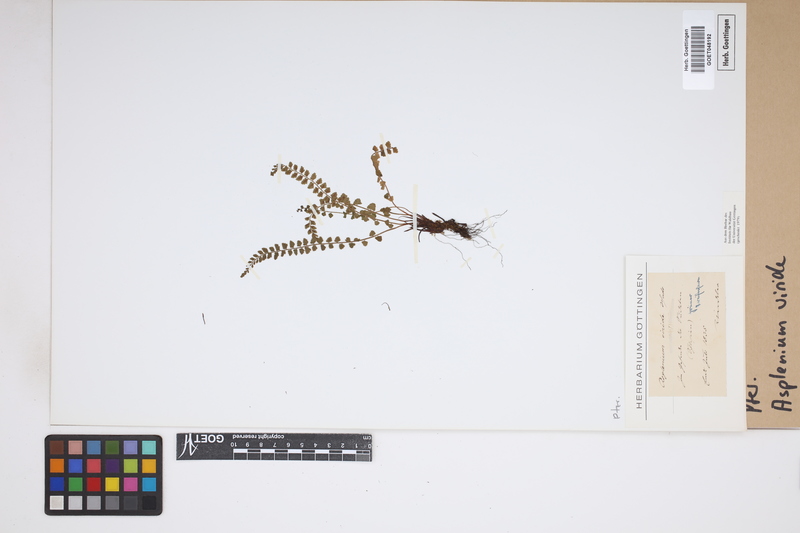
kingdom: Plantae
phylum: Tracheophyta
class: Polypodiopsida
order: Polypodiales
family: Aspleniaceae
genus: Asplenium
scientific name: Asplenium viride
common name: Green spleenwort
